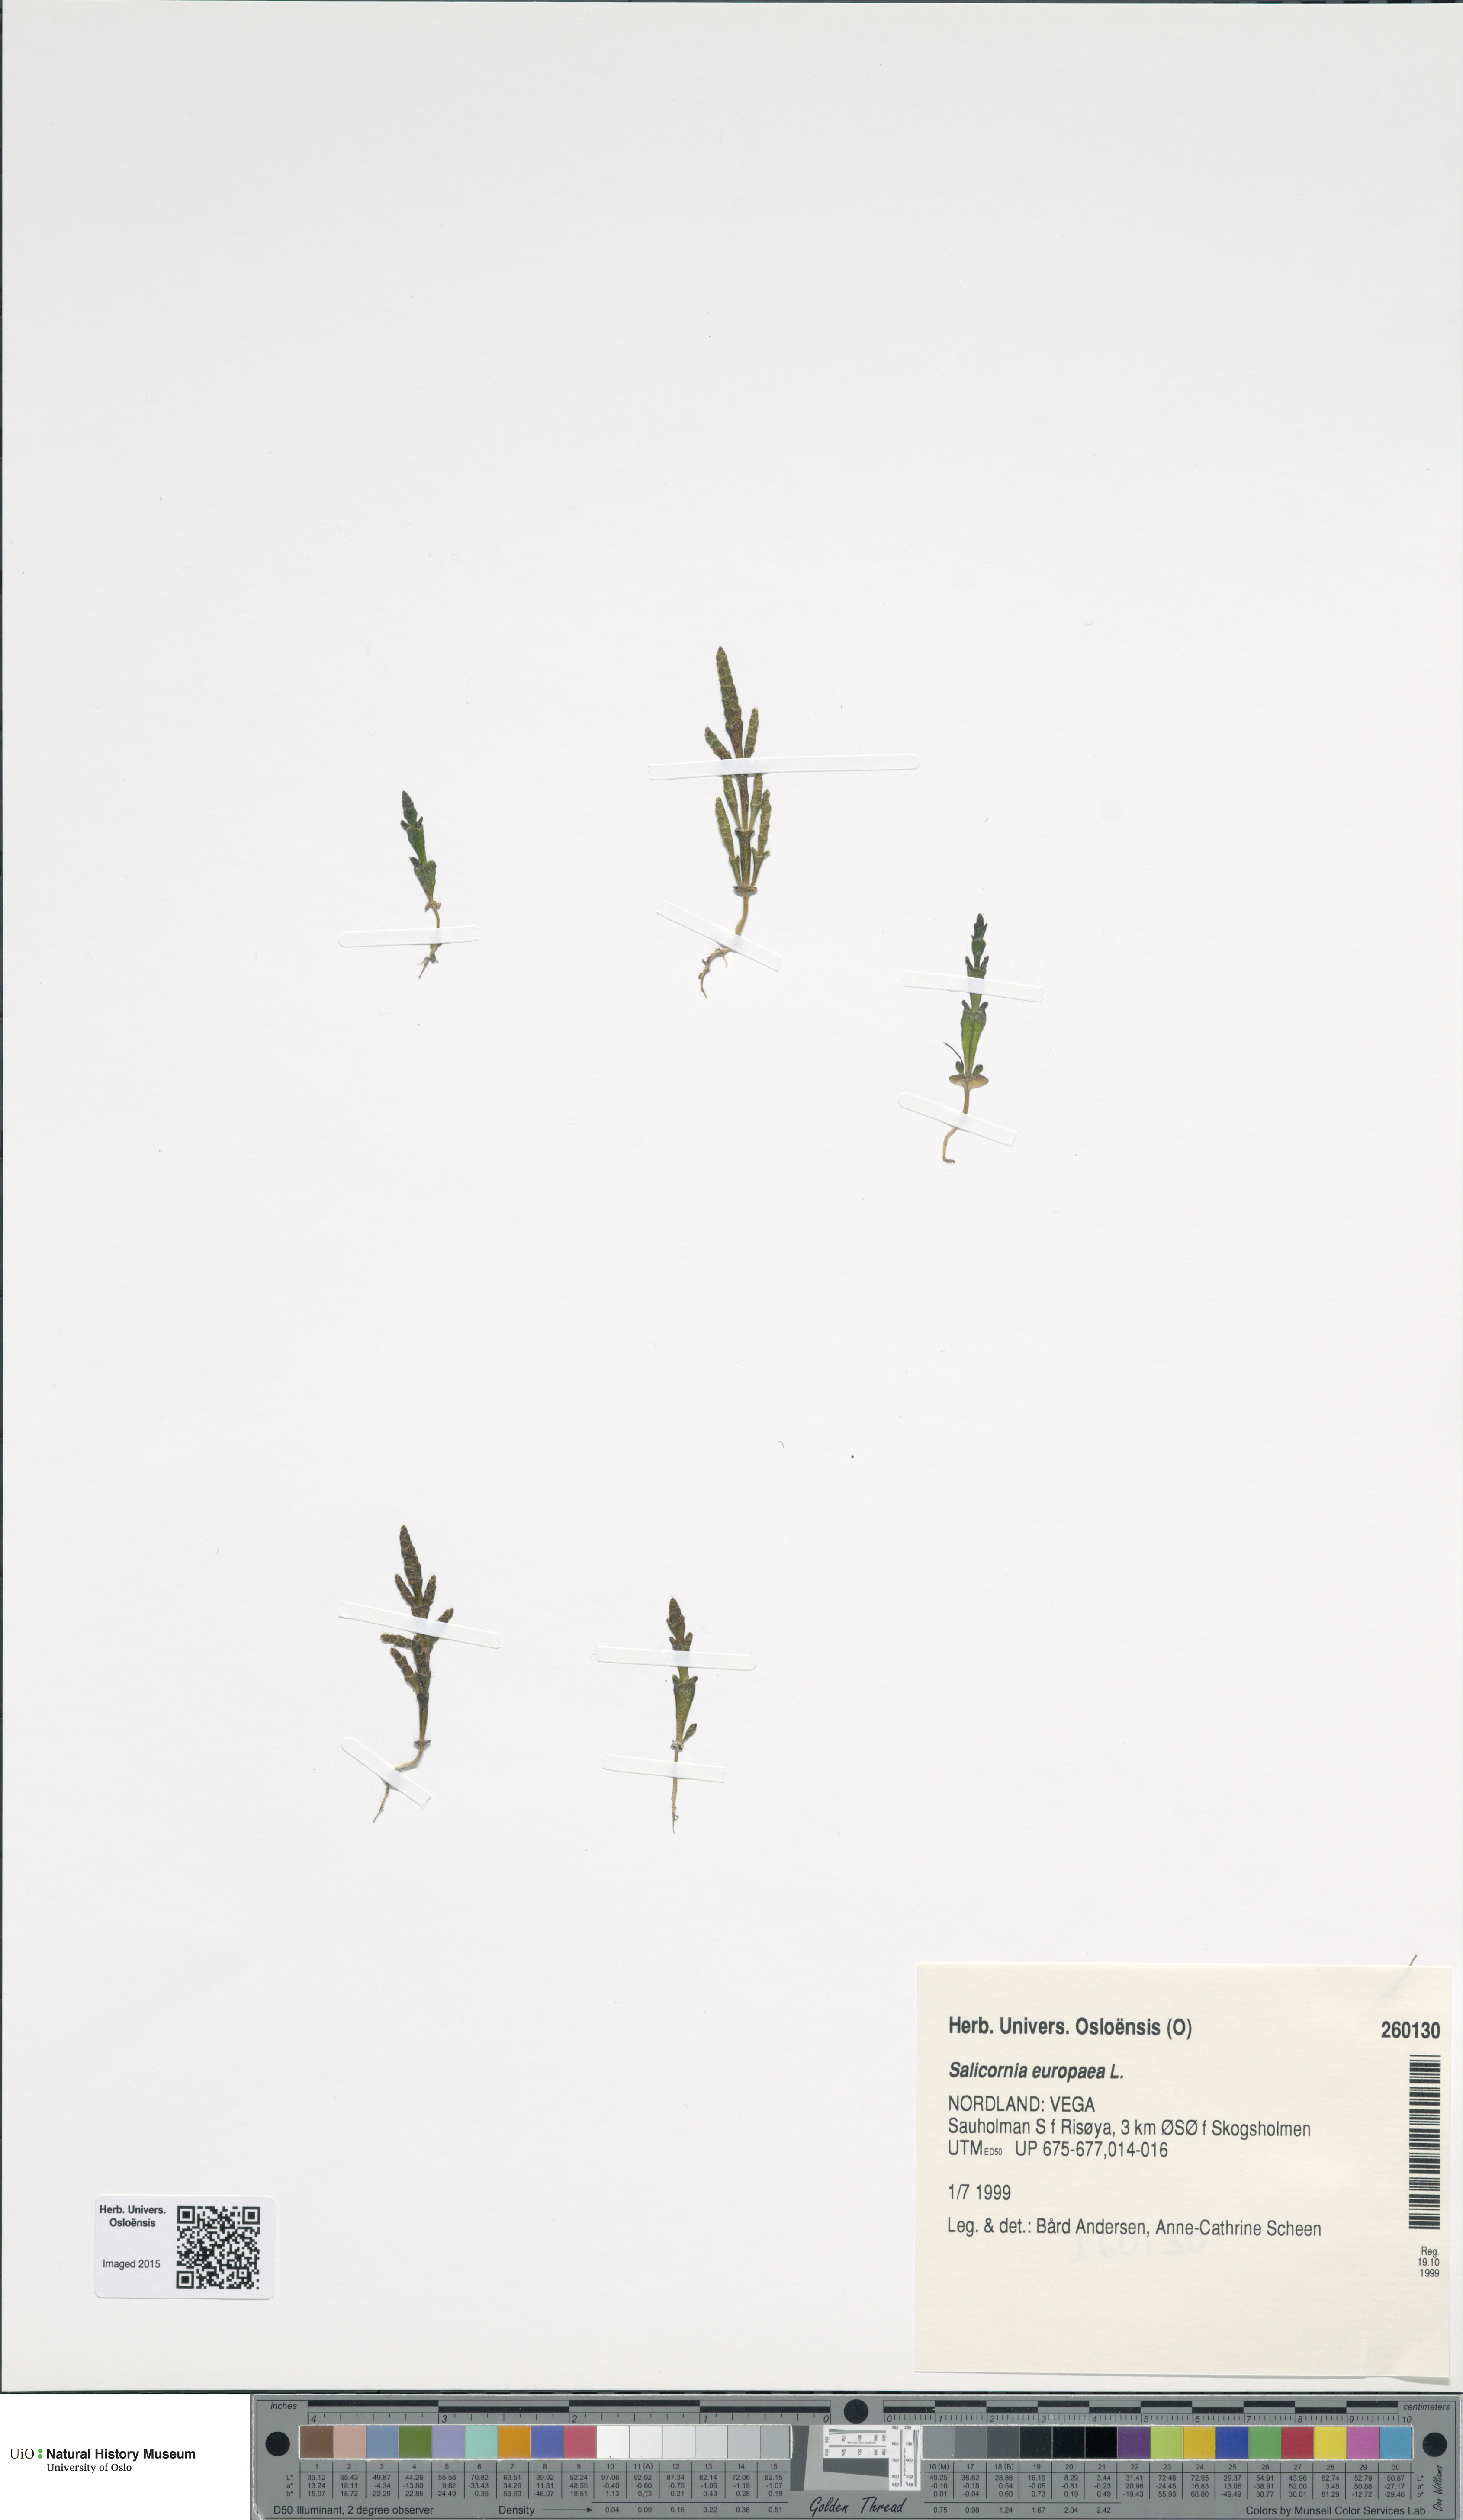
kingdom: Plantae
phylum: Tracheophyta
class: Magnoliopsida
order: Caryophyllales
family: Amaranthaceae
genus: Salicornia
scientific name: Salicornia europaea
